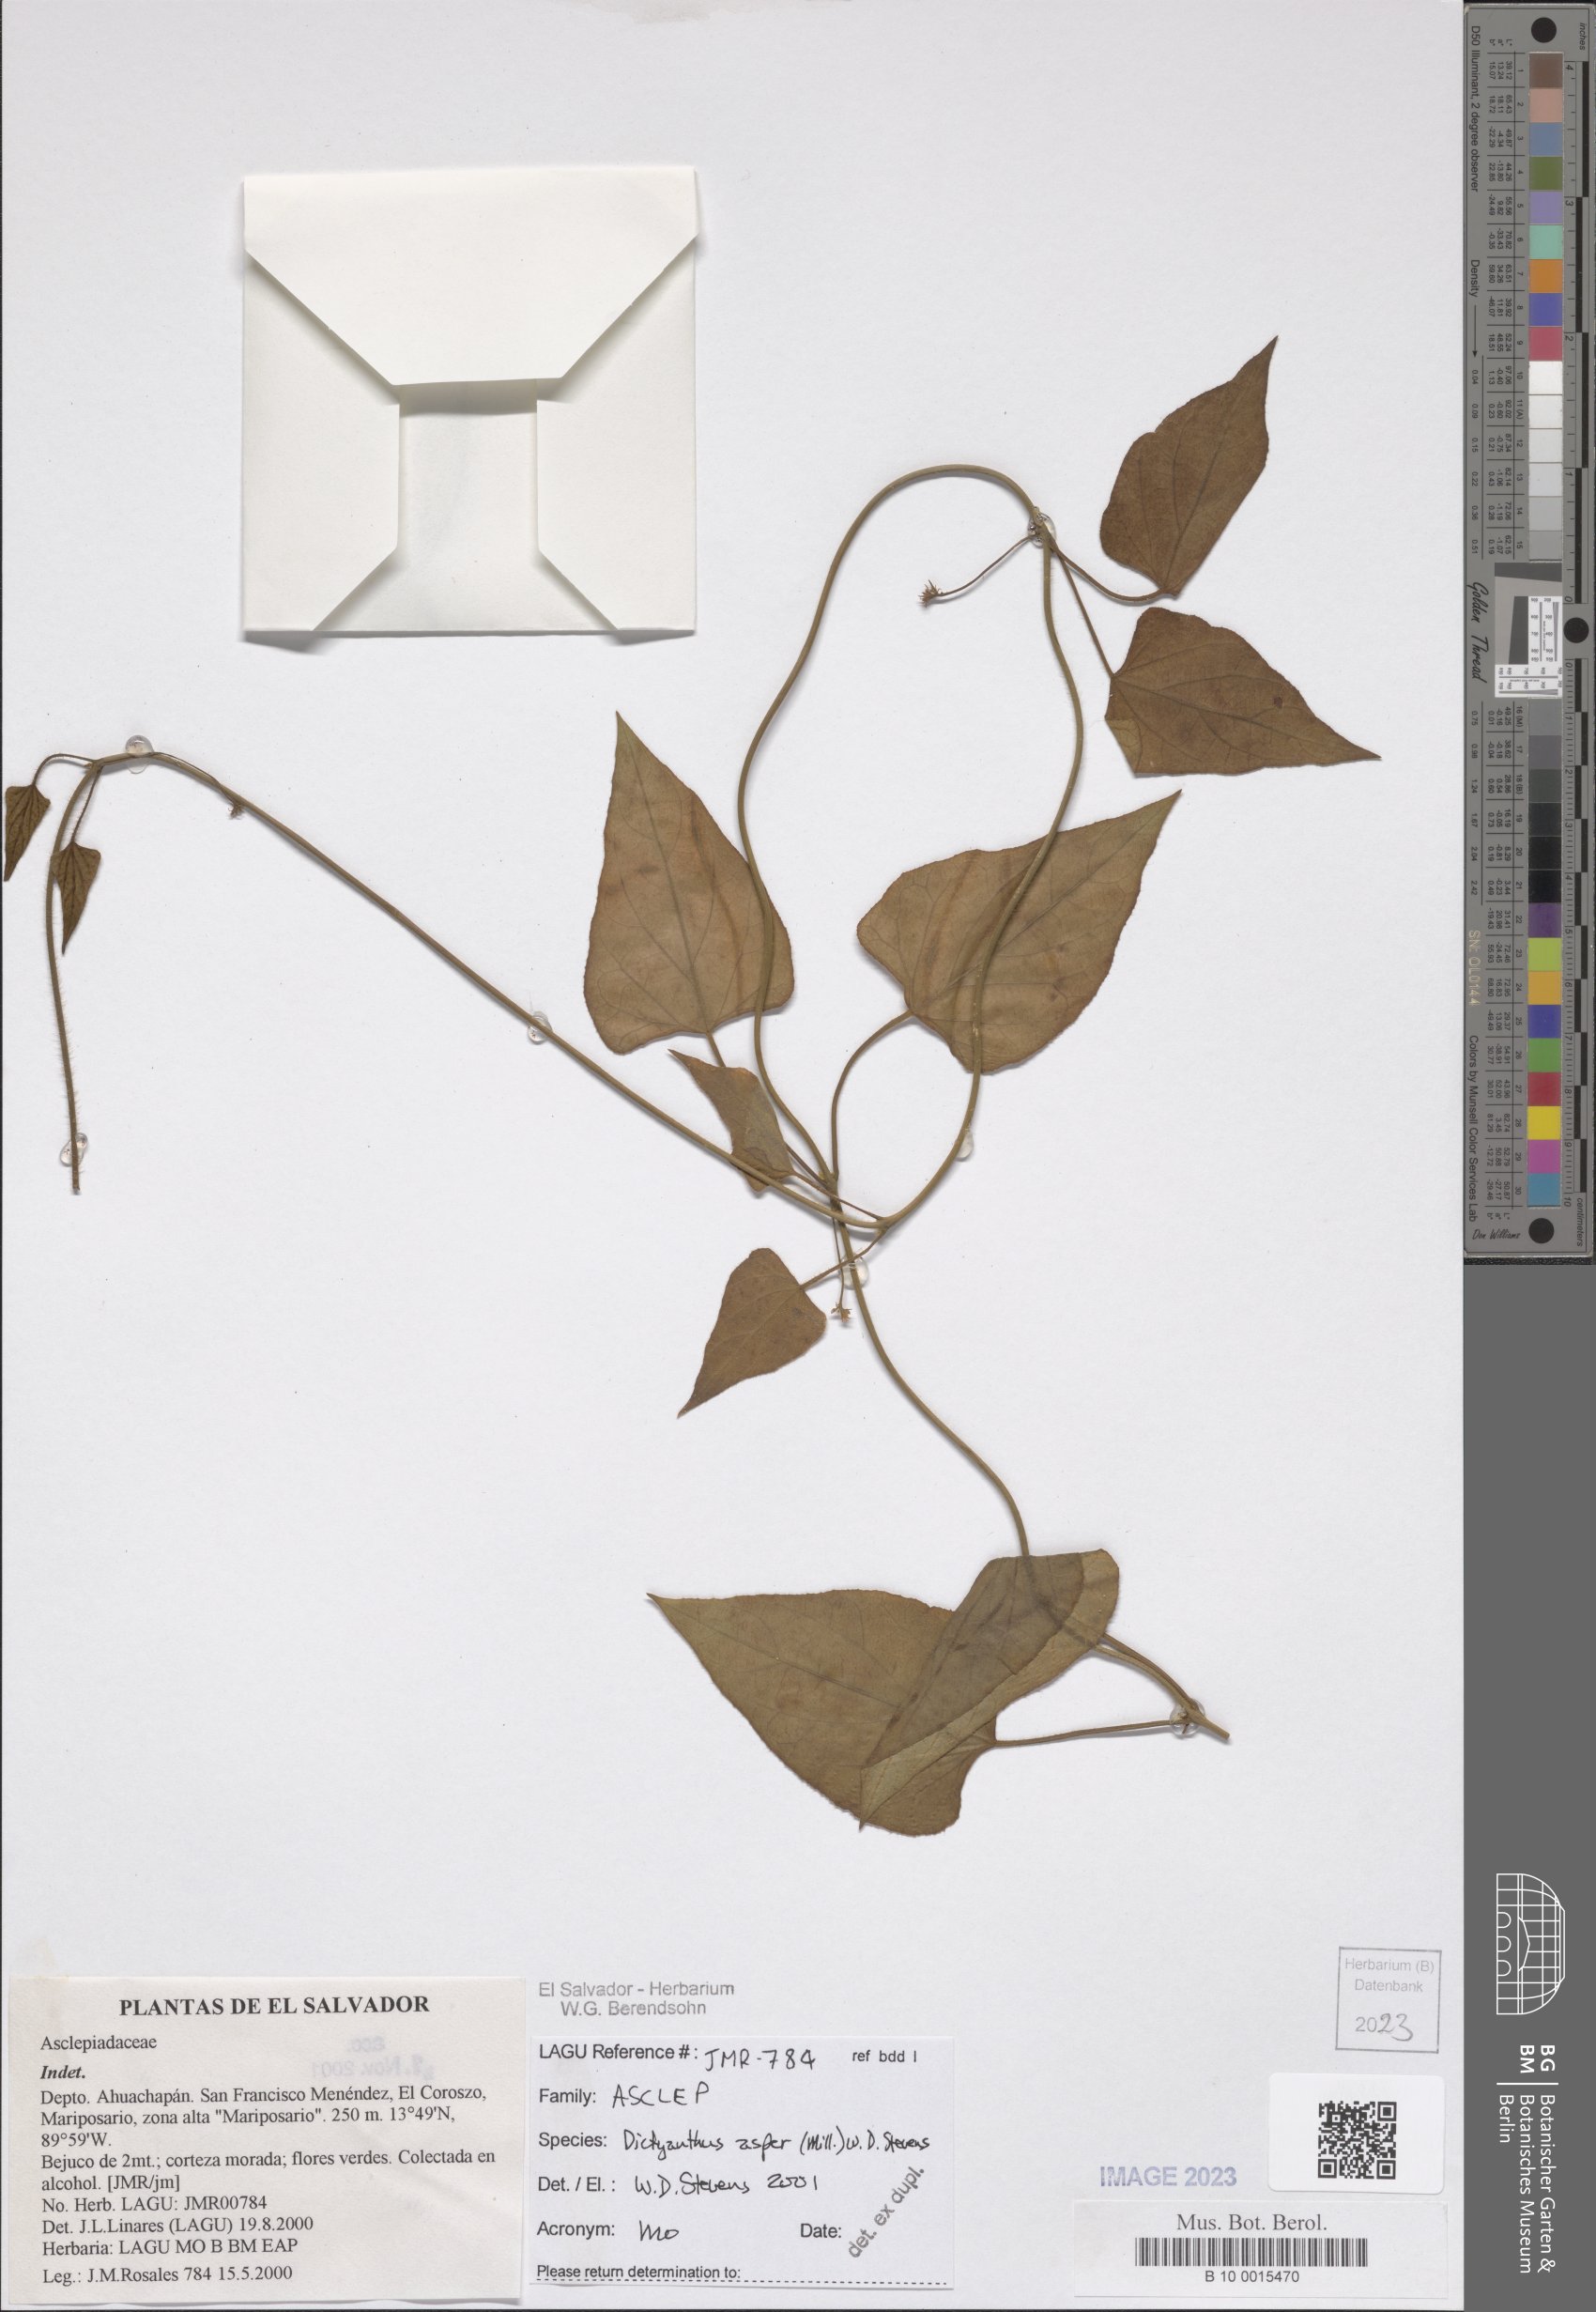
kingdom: Plantae
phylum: Tracheophyta
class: Magnoliopsida
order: Gentianales
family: Apocynaceae
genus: Dictyanthus
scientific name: Dictyanthus asper
